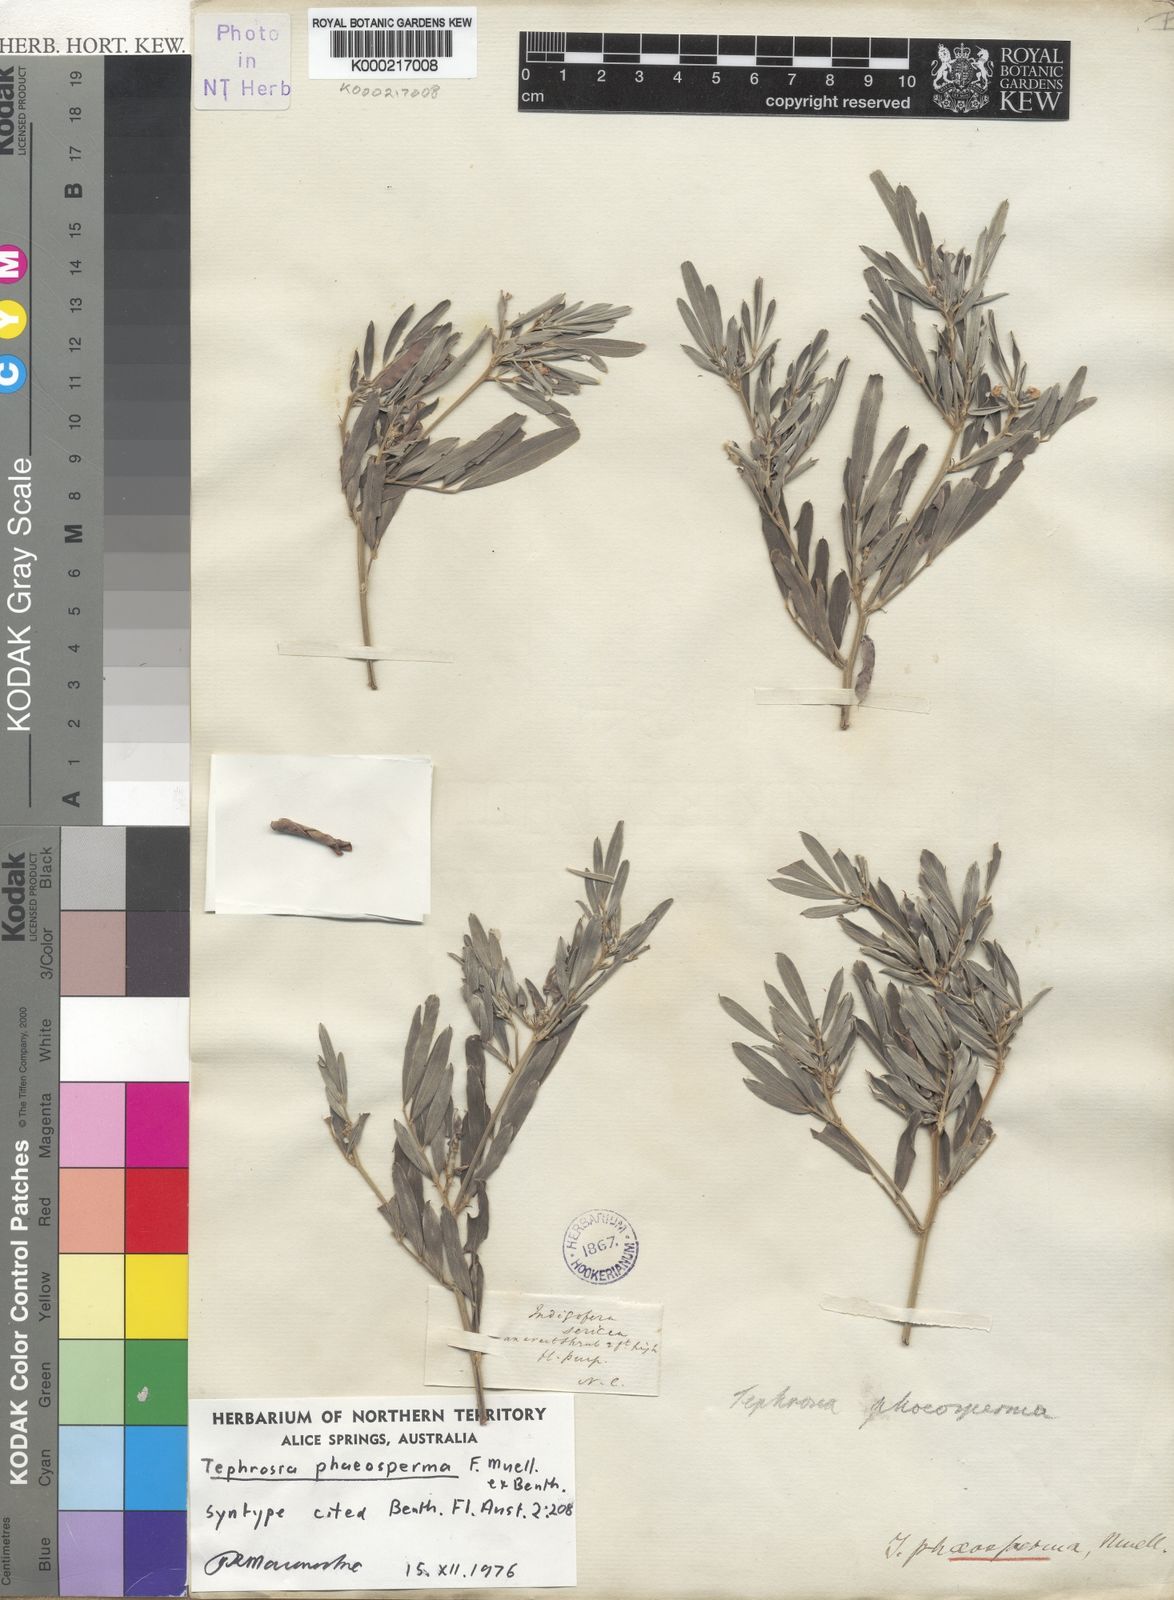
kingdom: Plantae
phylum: Tracheophyta
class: Magnoliopsida
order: Fabales
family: Fabaceae
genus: Tephrosia
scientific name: Tephrosia phaeosperma
